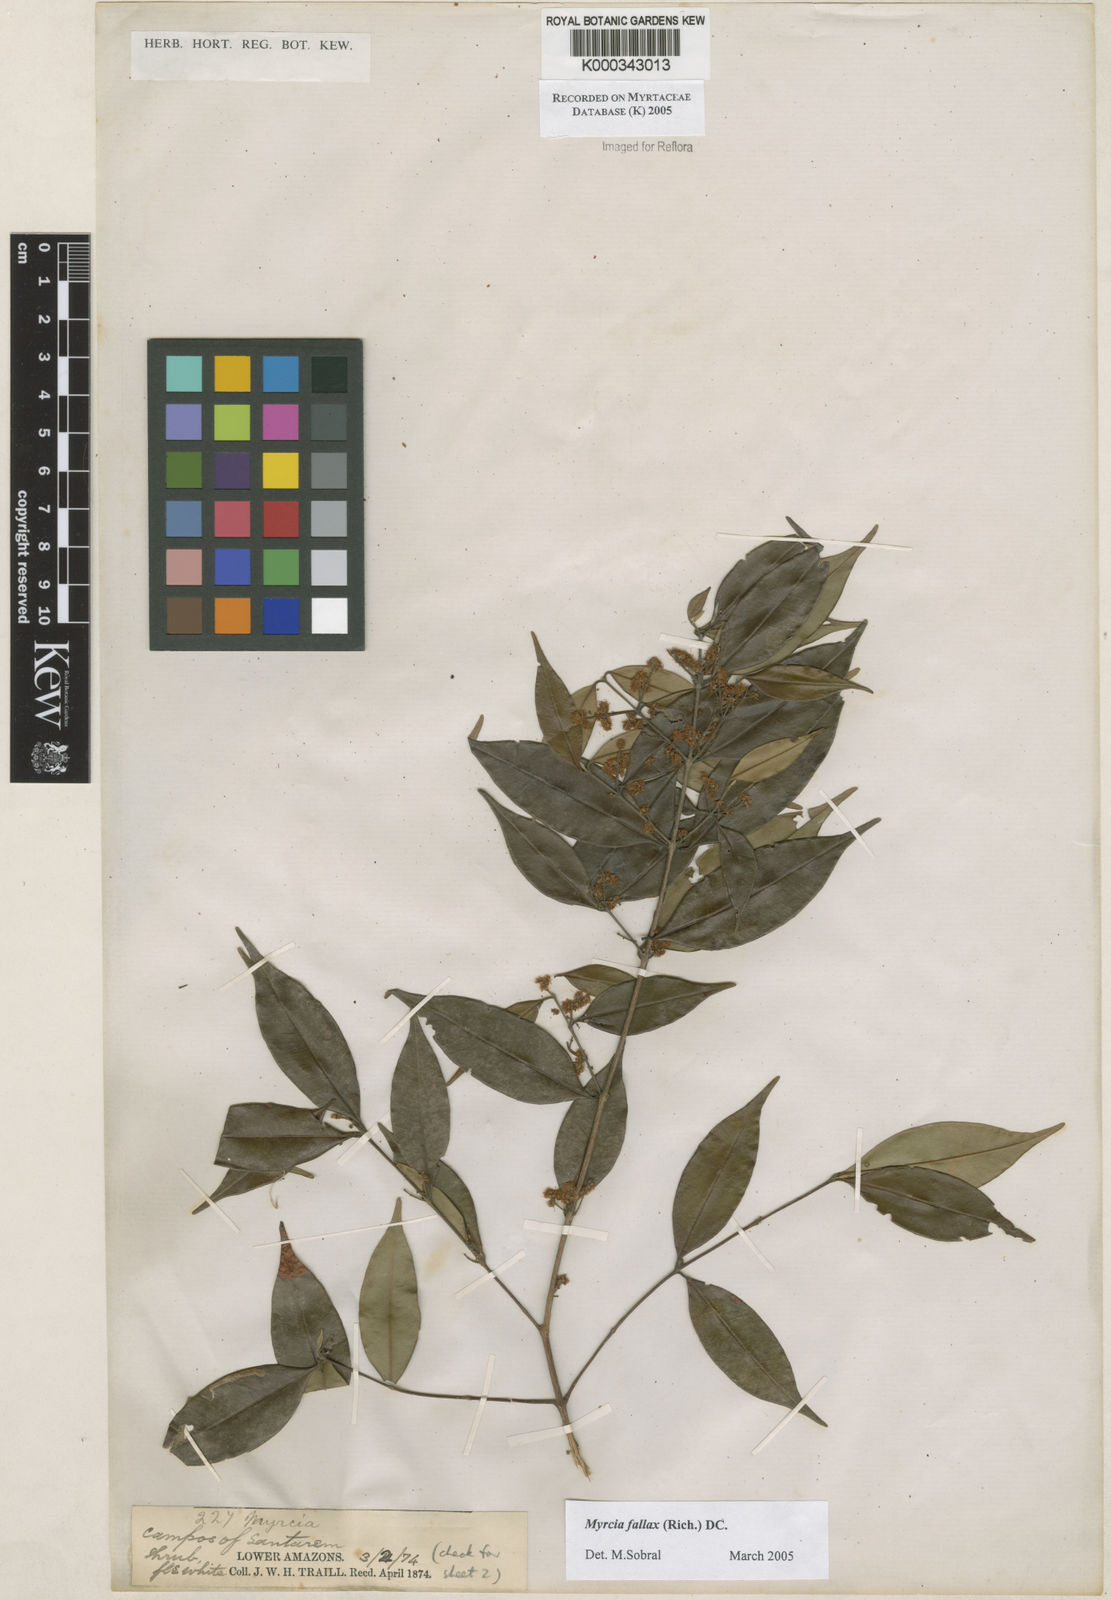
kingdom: Plantae
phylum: Tracheophyta
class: Magnoliopsida
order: Myrtales
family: Myrtaceae
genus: Myrcia
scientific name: Myrcia splendens
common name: Surinam cherry
